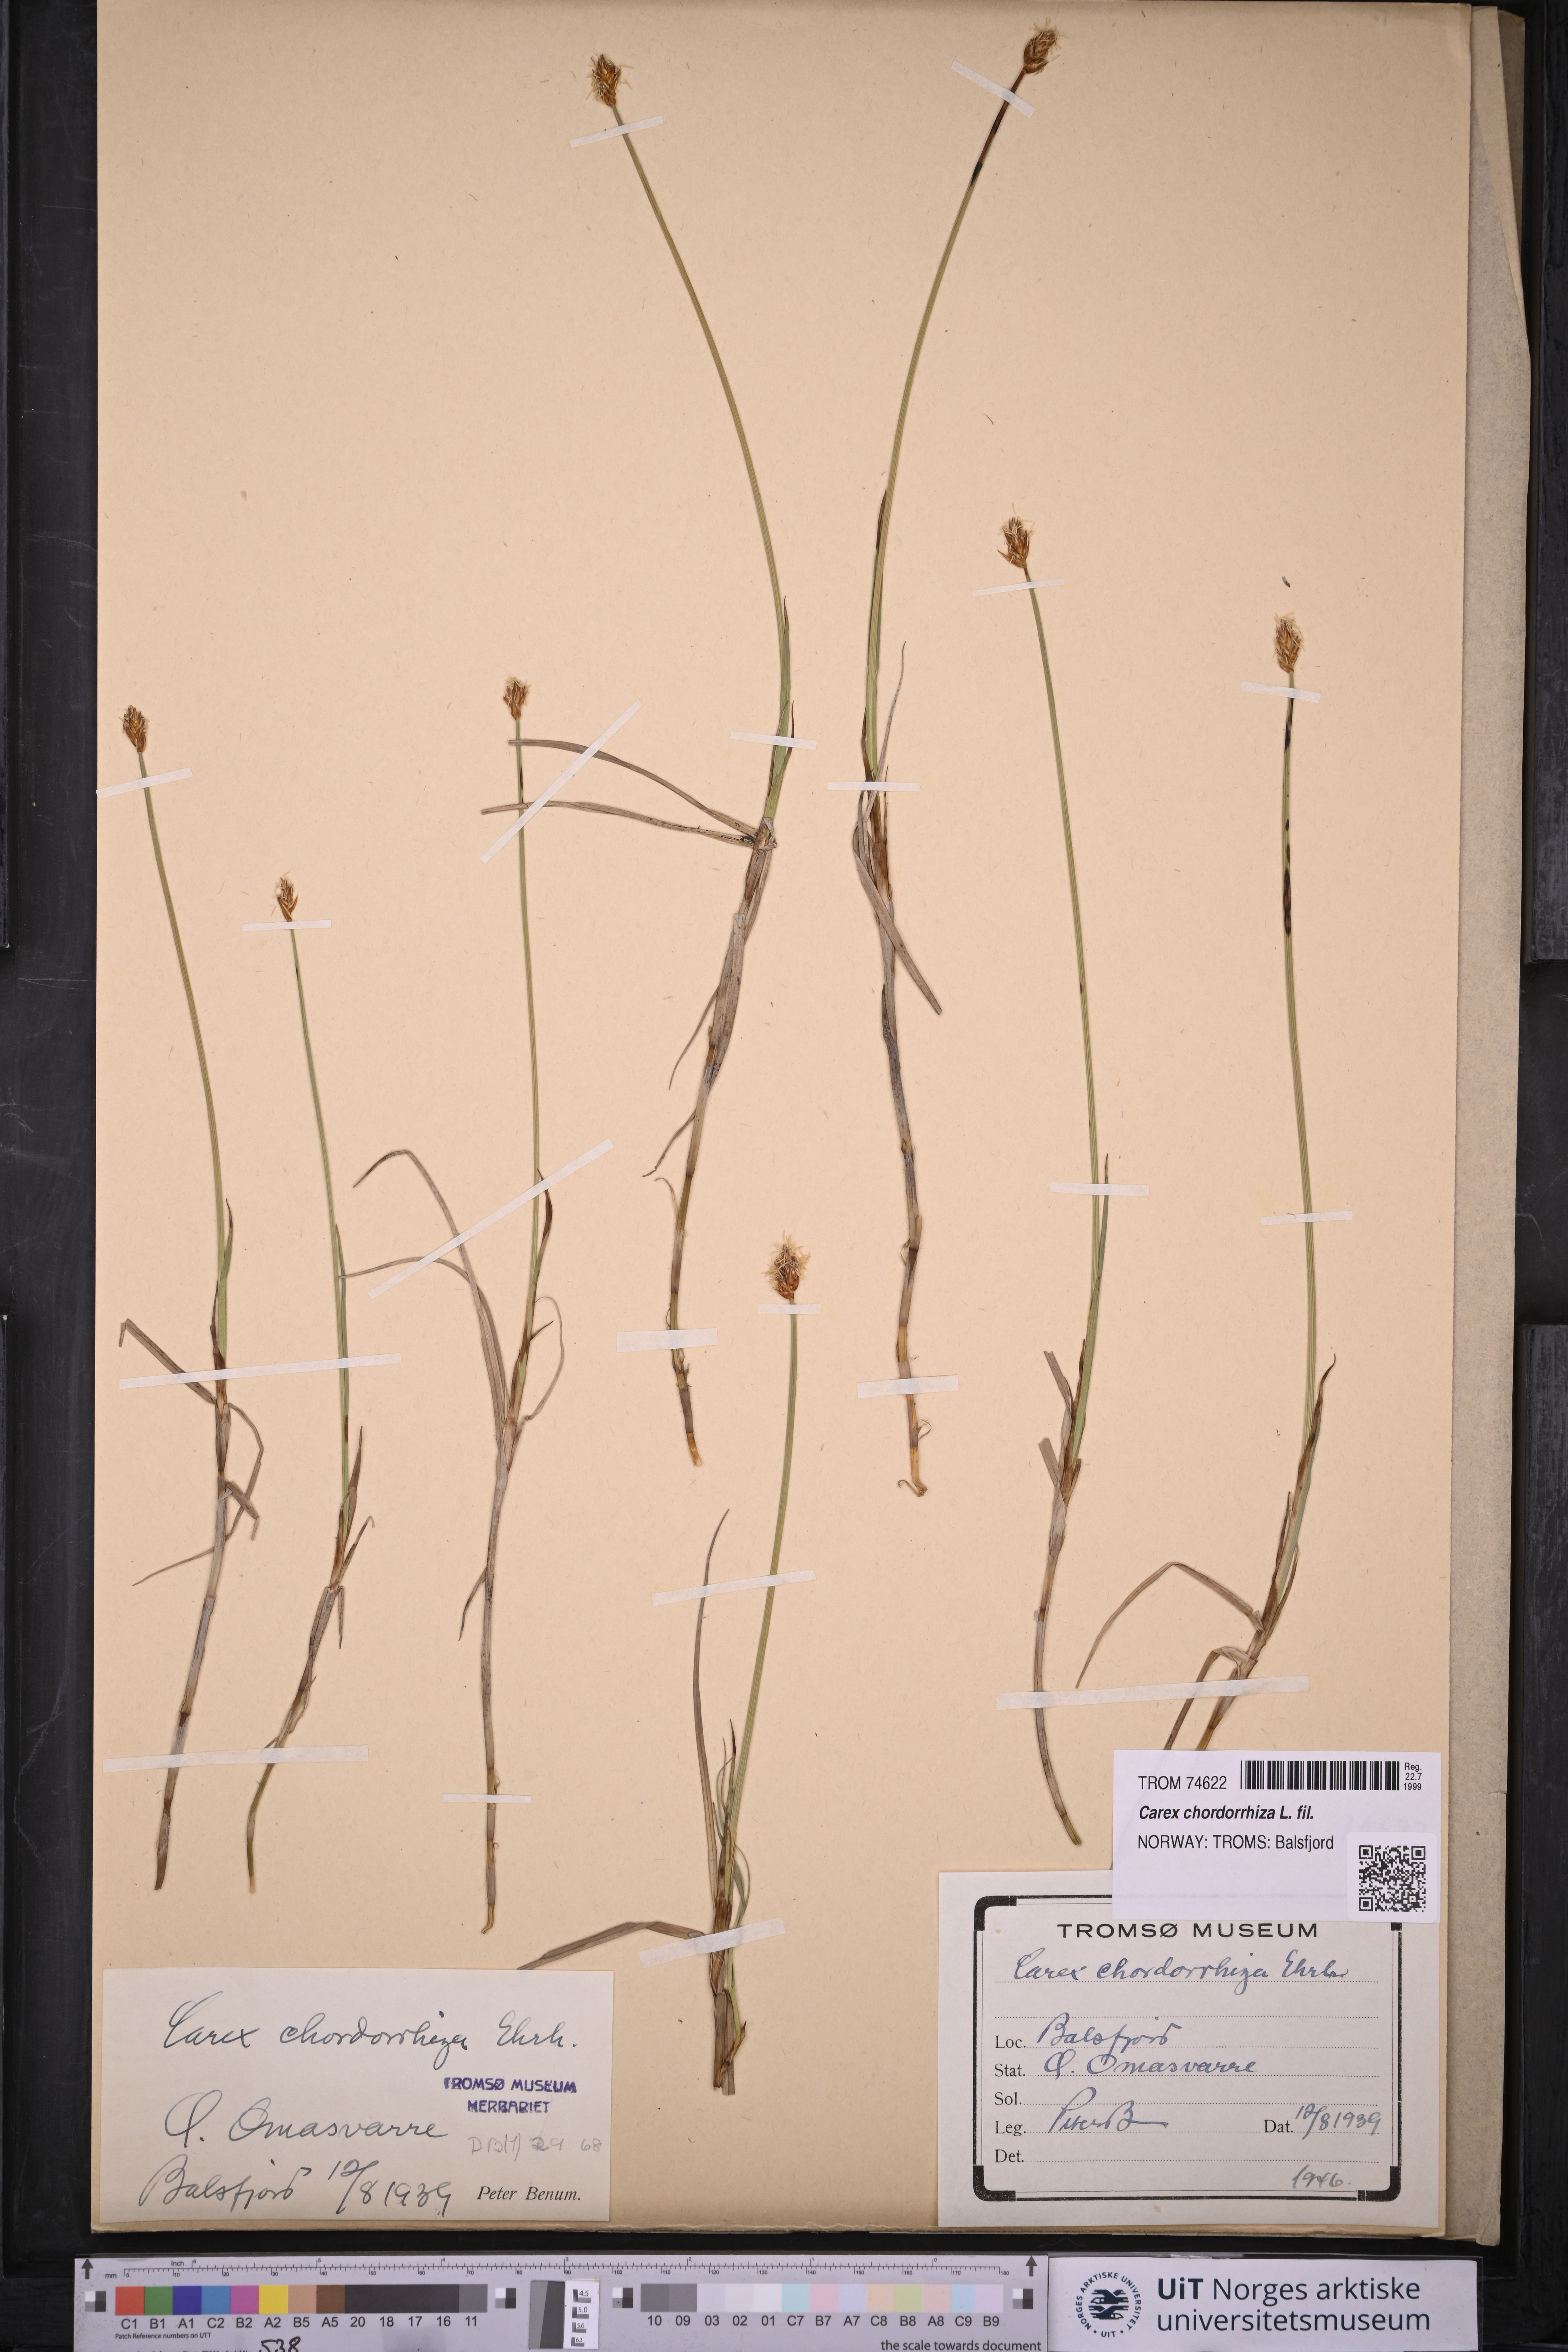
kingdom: Plantae
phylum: Tracheophyta
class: Liliopsida
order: Poales
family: Cyperaceae
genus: Carex
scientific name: Carex chordorrhiza
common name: String sedge
